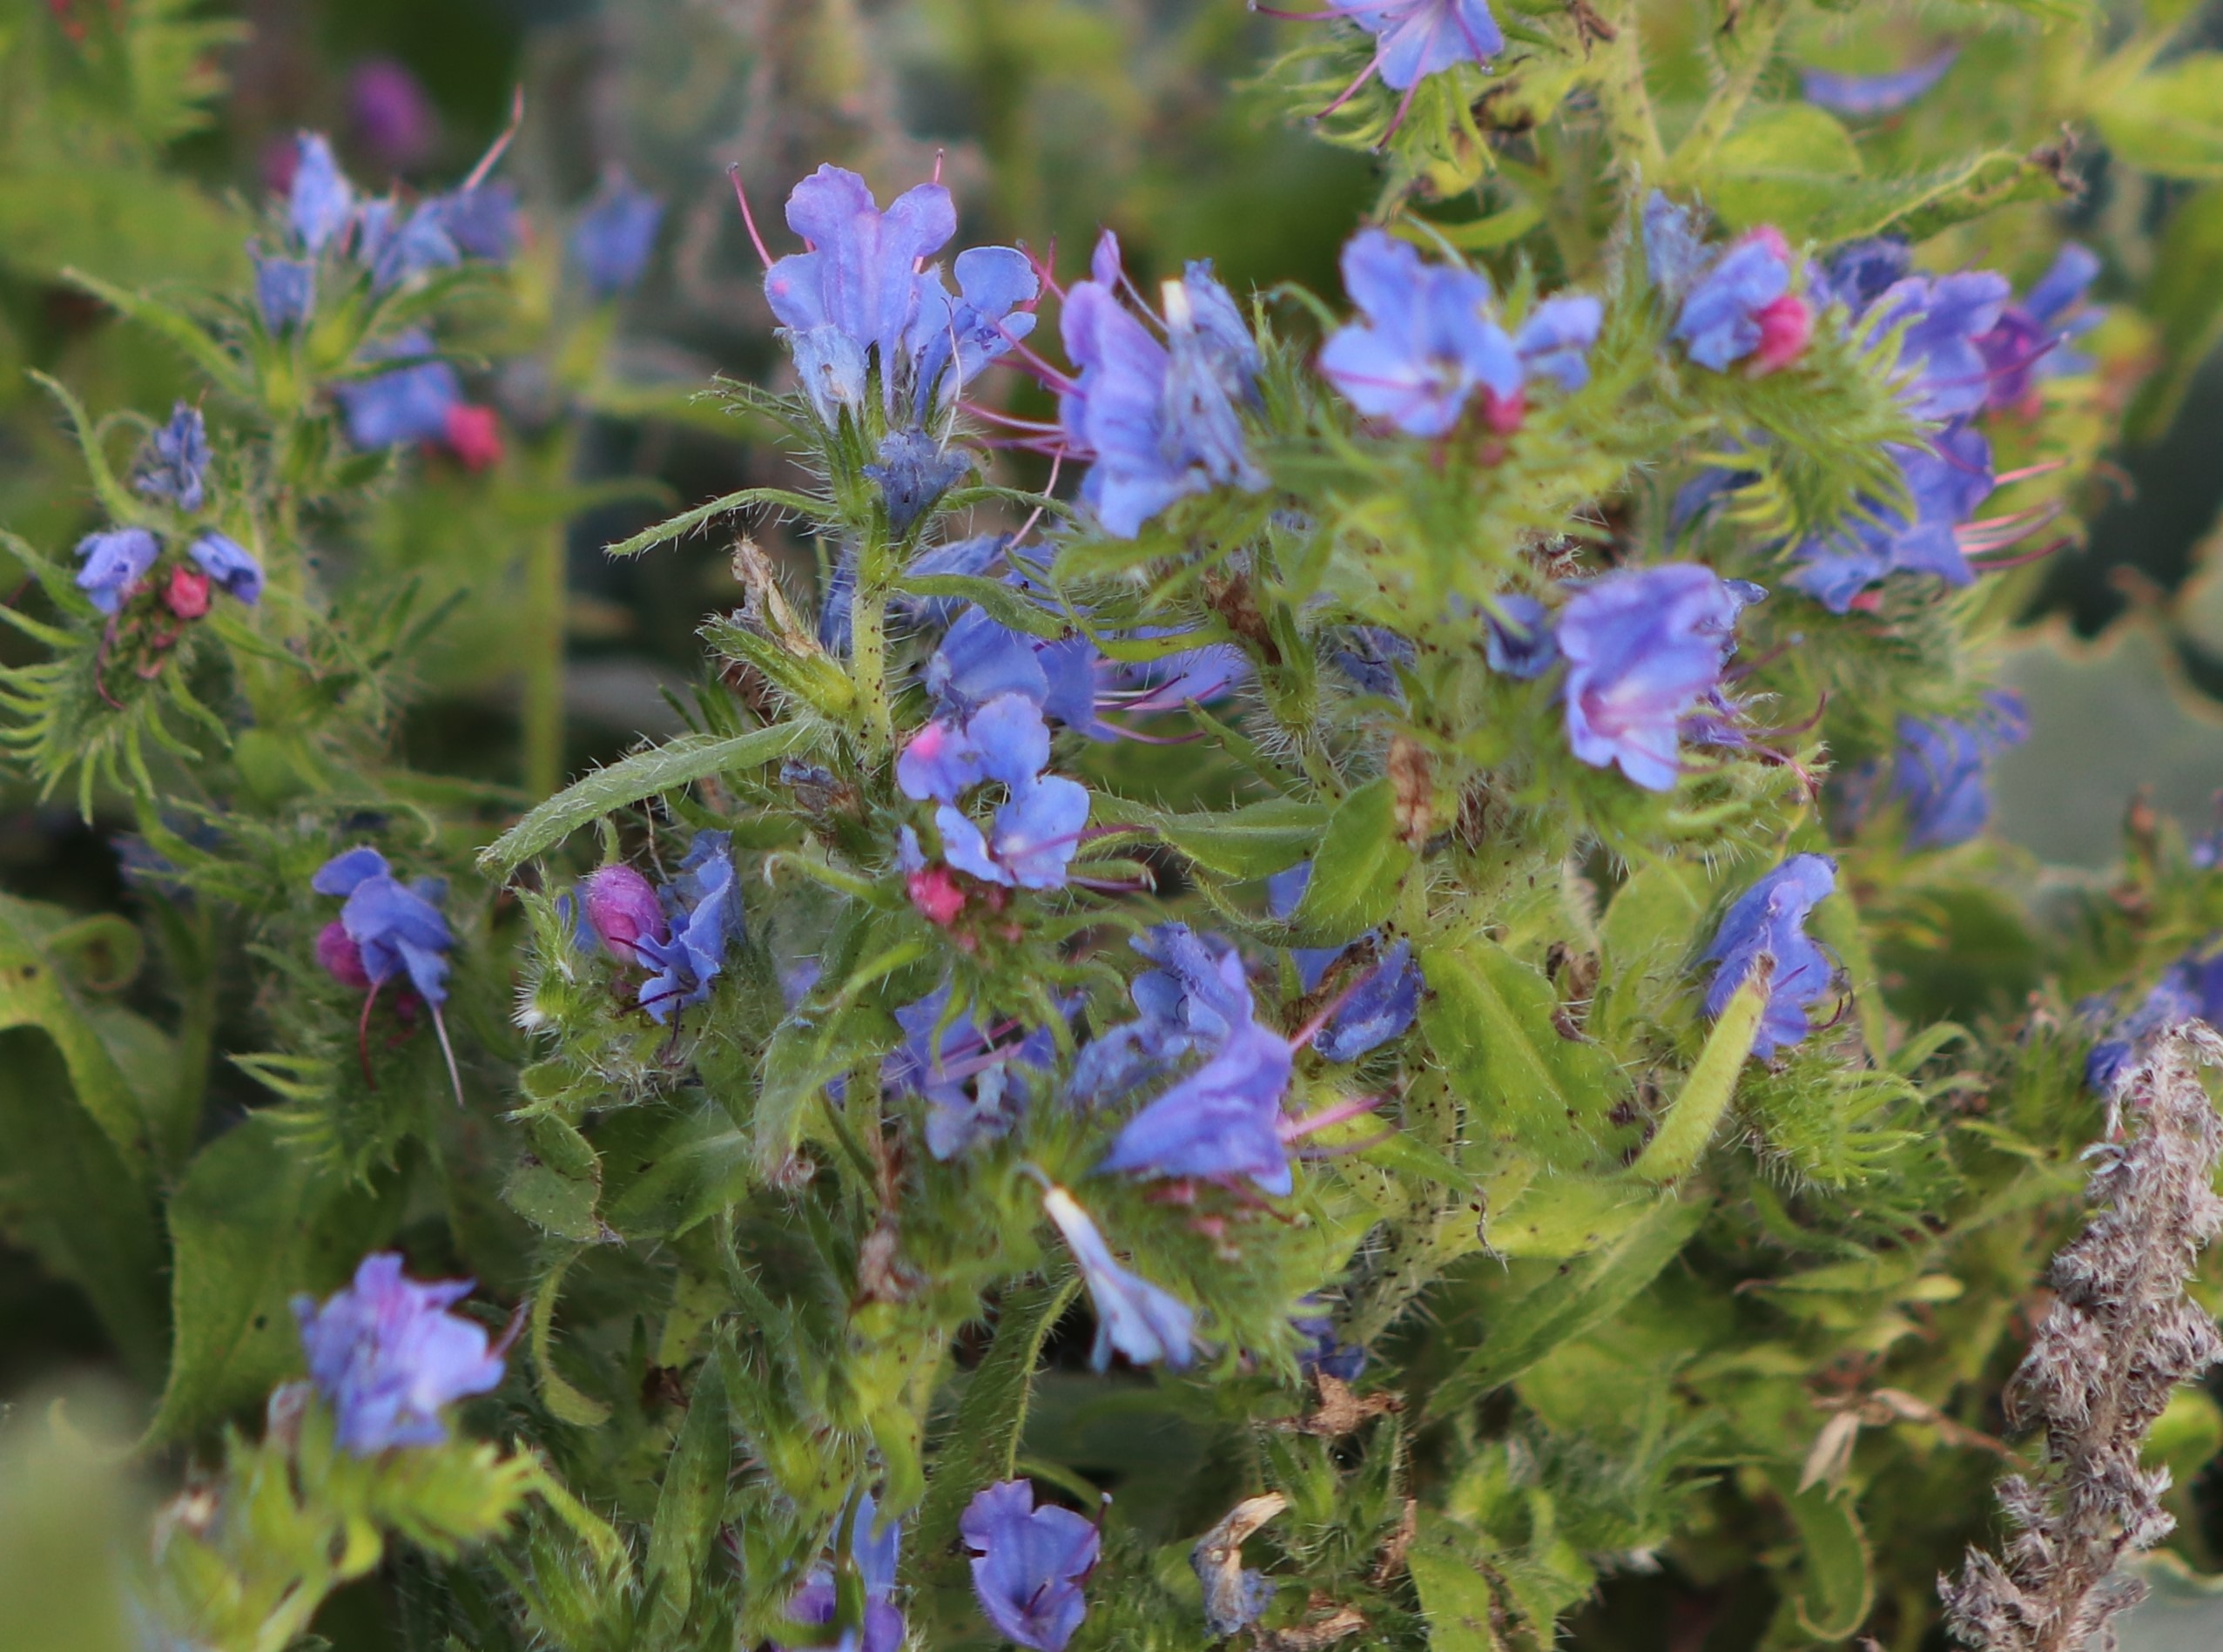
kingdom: Plantae
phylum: Tracheophyta
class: Magnoliopsida
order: Boraginales
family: Boraginaceae
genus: Echium
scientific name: Echium vulgare
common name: Slangehoved
